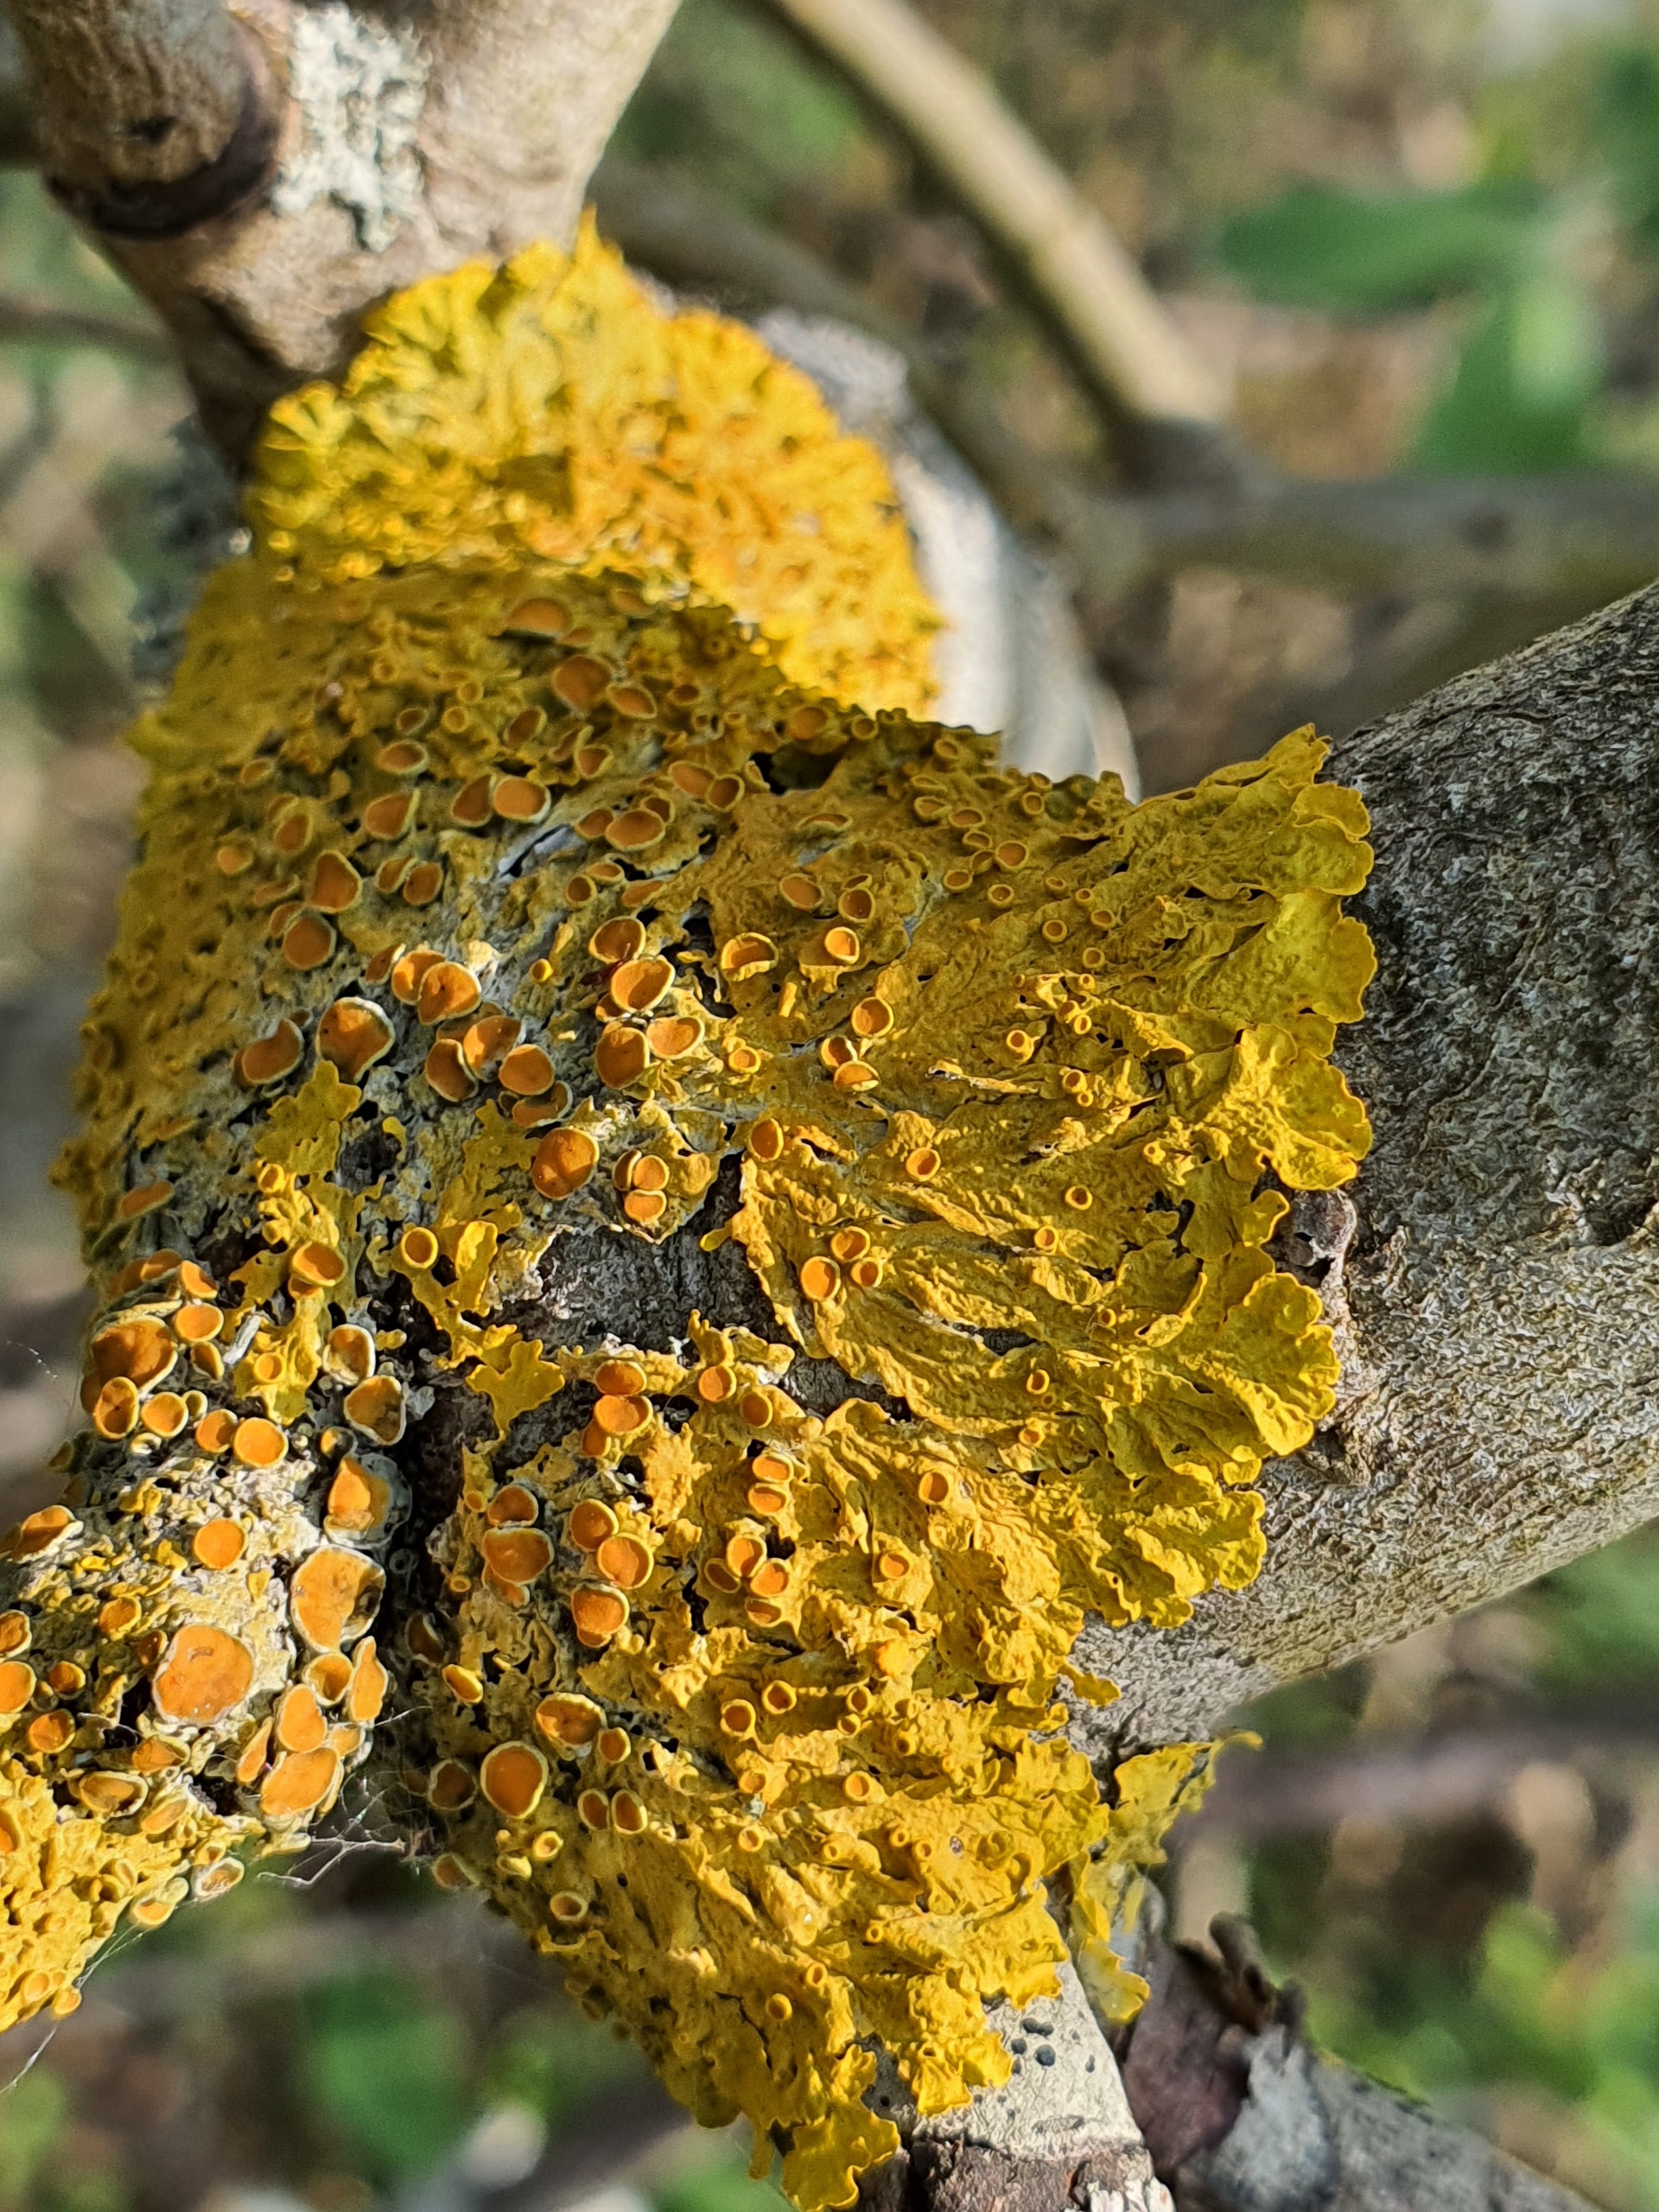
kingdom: Fungi
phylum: Ascomycota
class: Lecanoromycetes
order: Teloschistales
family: Teloschistaceae
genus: Xanthoria
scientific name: Xanthoria parietina
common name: Almindelig væggelav
